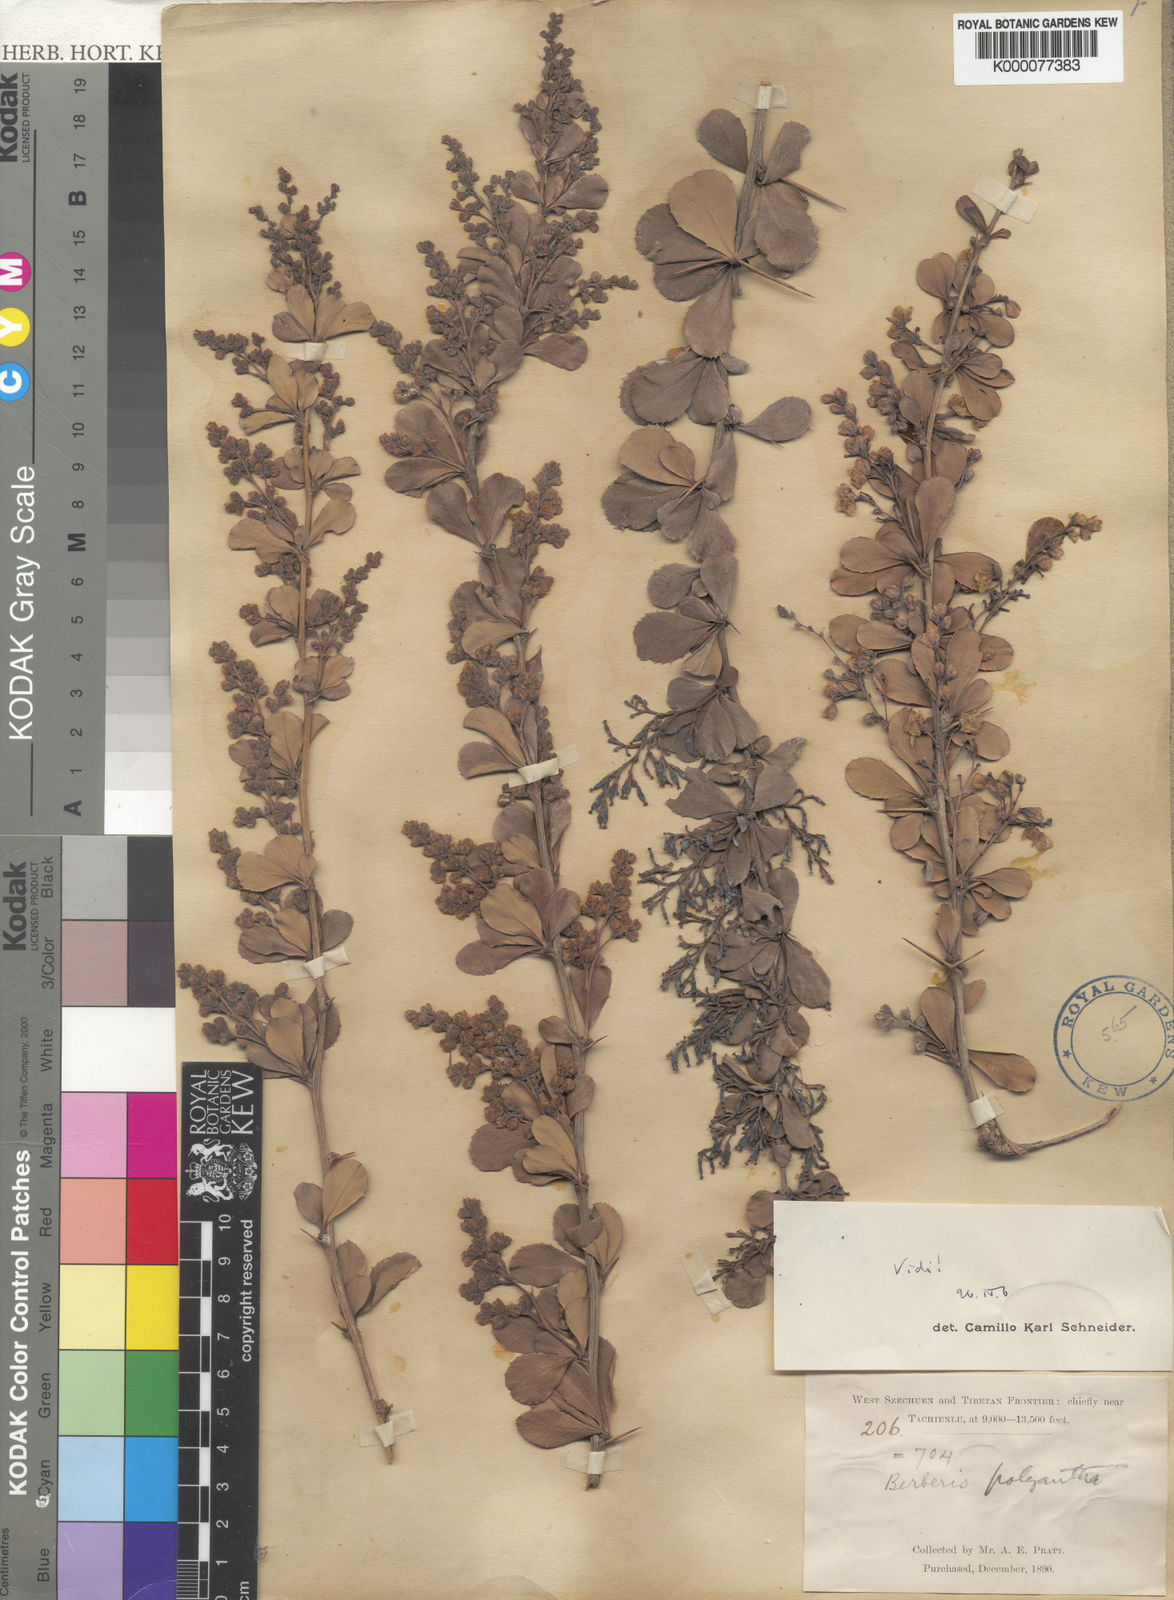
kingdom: Plantae
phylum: Tracheophyta
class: Magnoliopsida
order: Ranunculales
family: Berberidaceae
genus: Berberis
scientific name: Berberis polyantha
